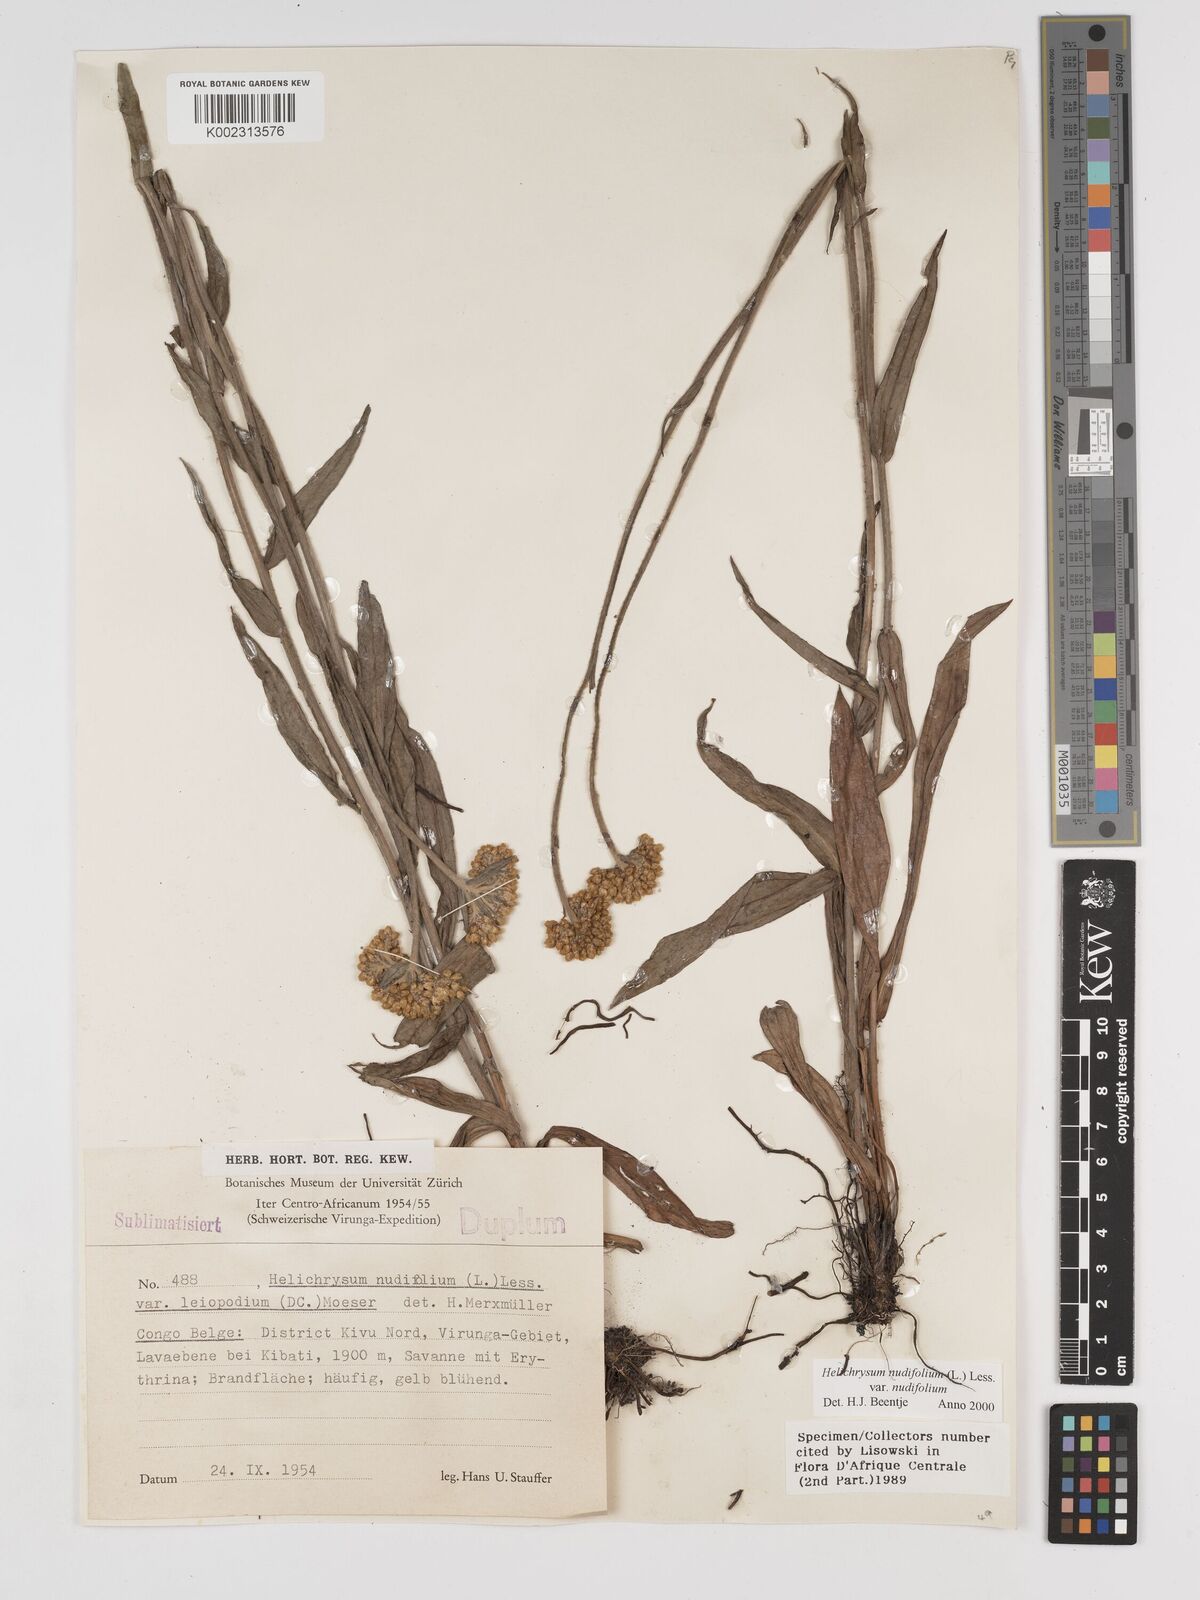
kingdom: Plantae
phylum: Tracheophyta
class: Magnoliopsida
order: Asterales
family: Asteraceae
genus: Helichrysum
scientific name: Helichrysum nudifolium
